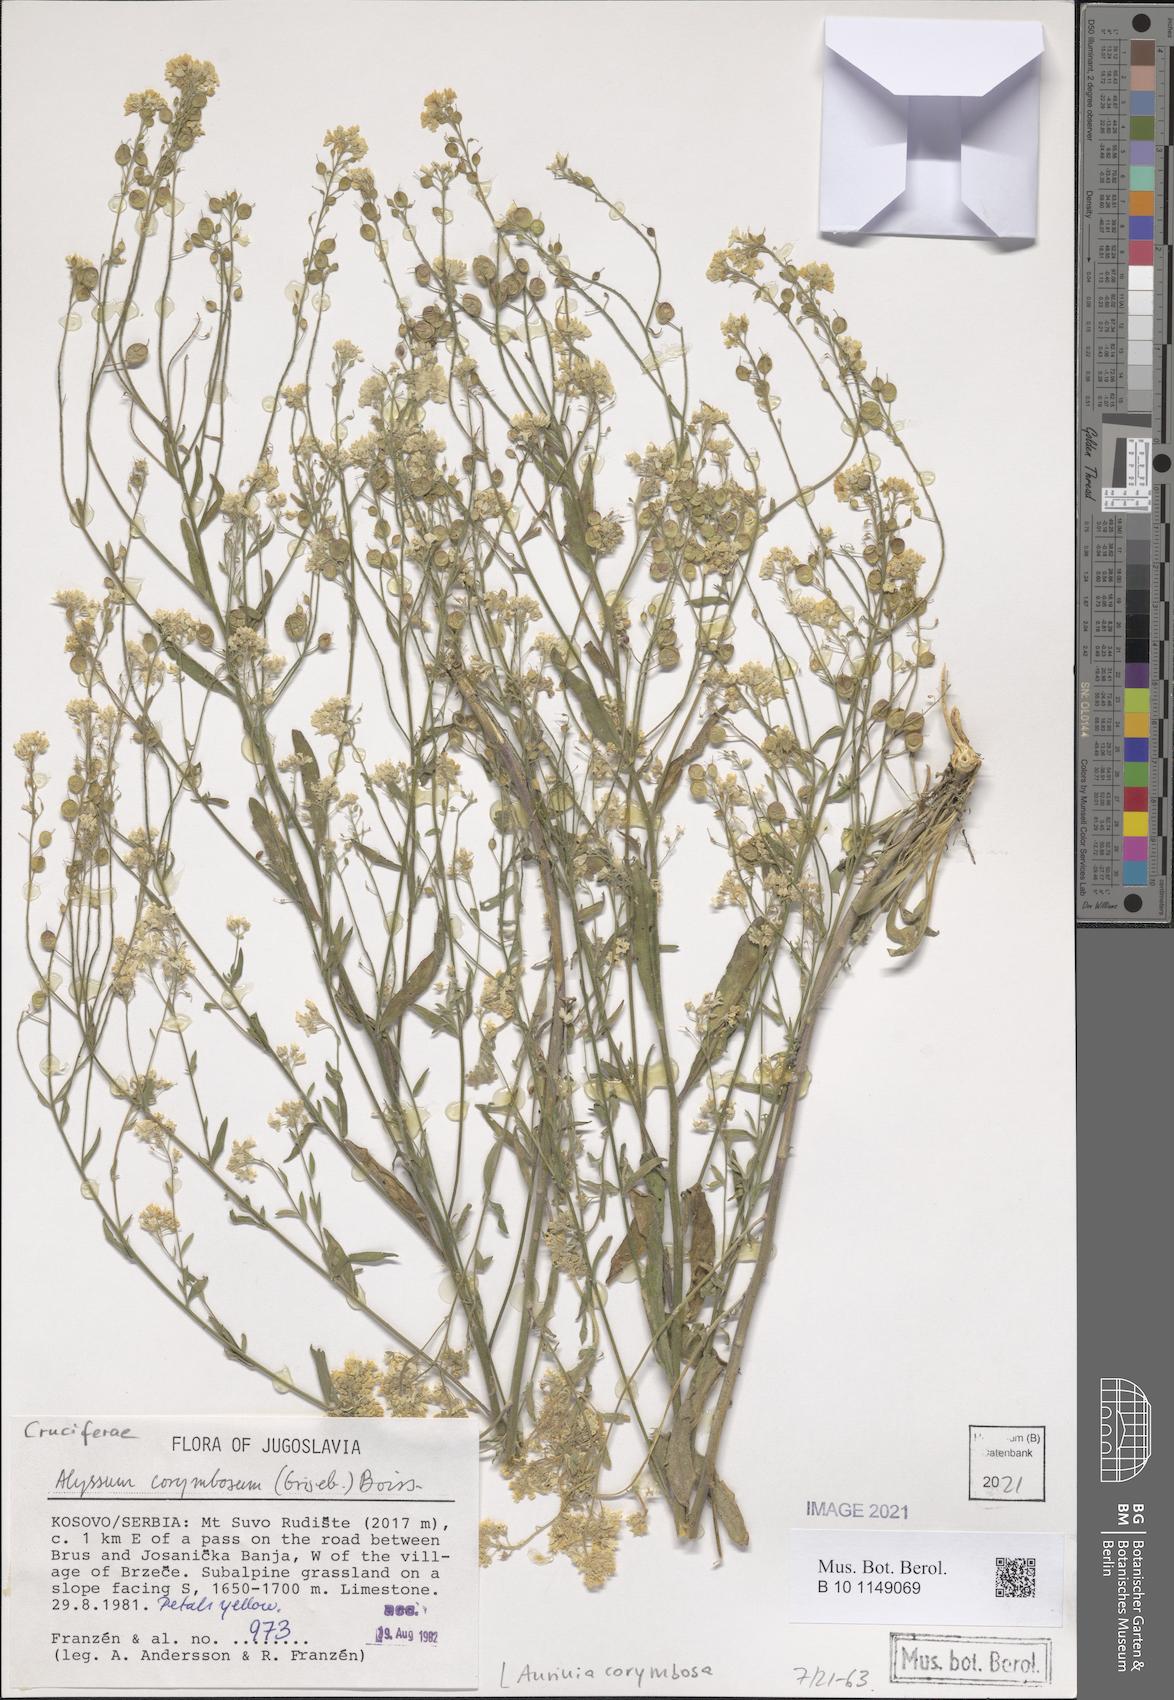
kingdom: Plantae
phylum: Tracheophyta
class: Magnoliopsida
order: Brassicales
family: Brassicaceae
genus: Aurinia
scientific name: Aurinia corymbosa
